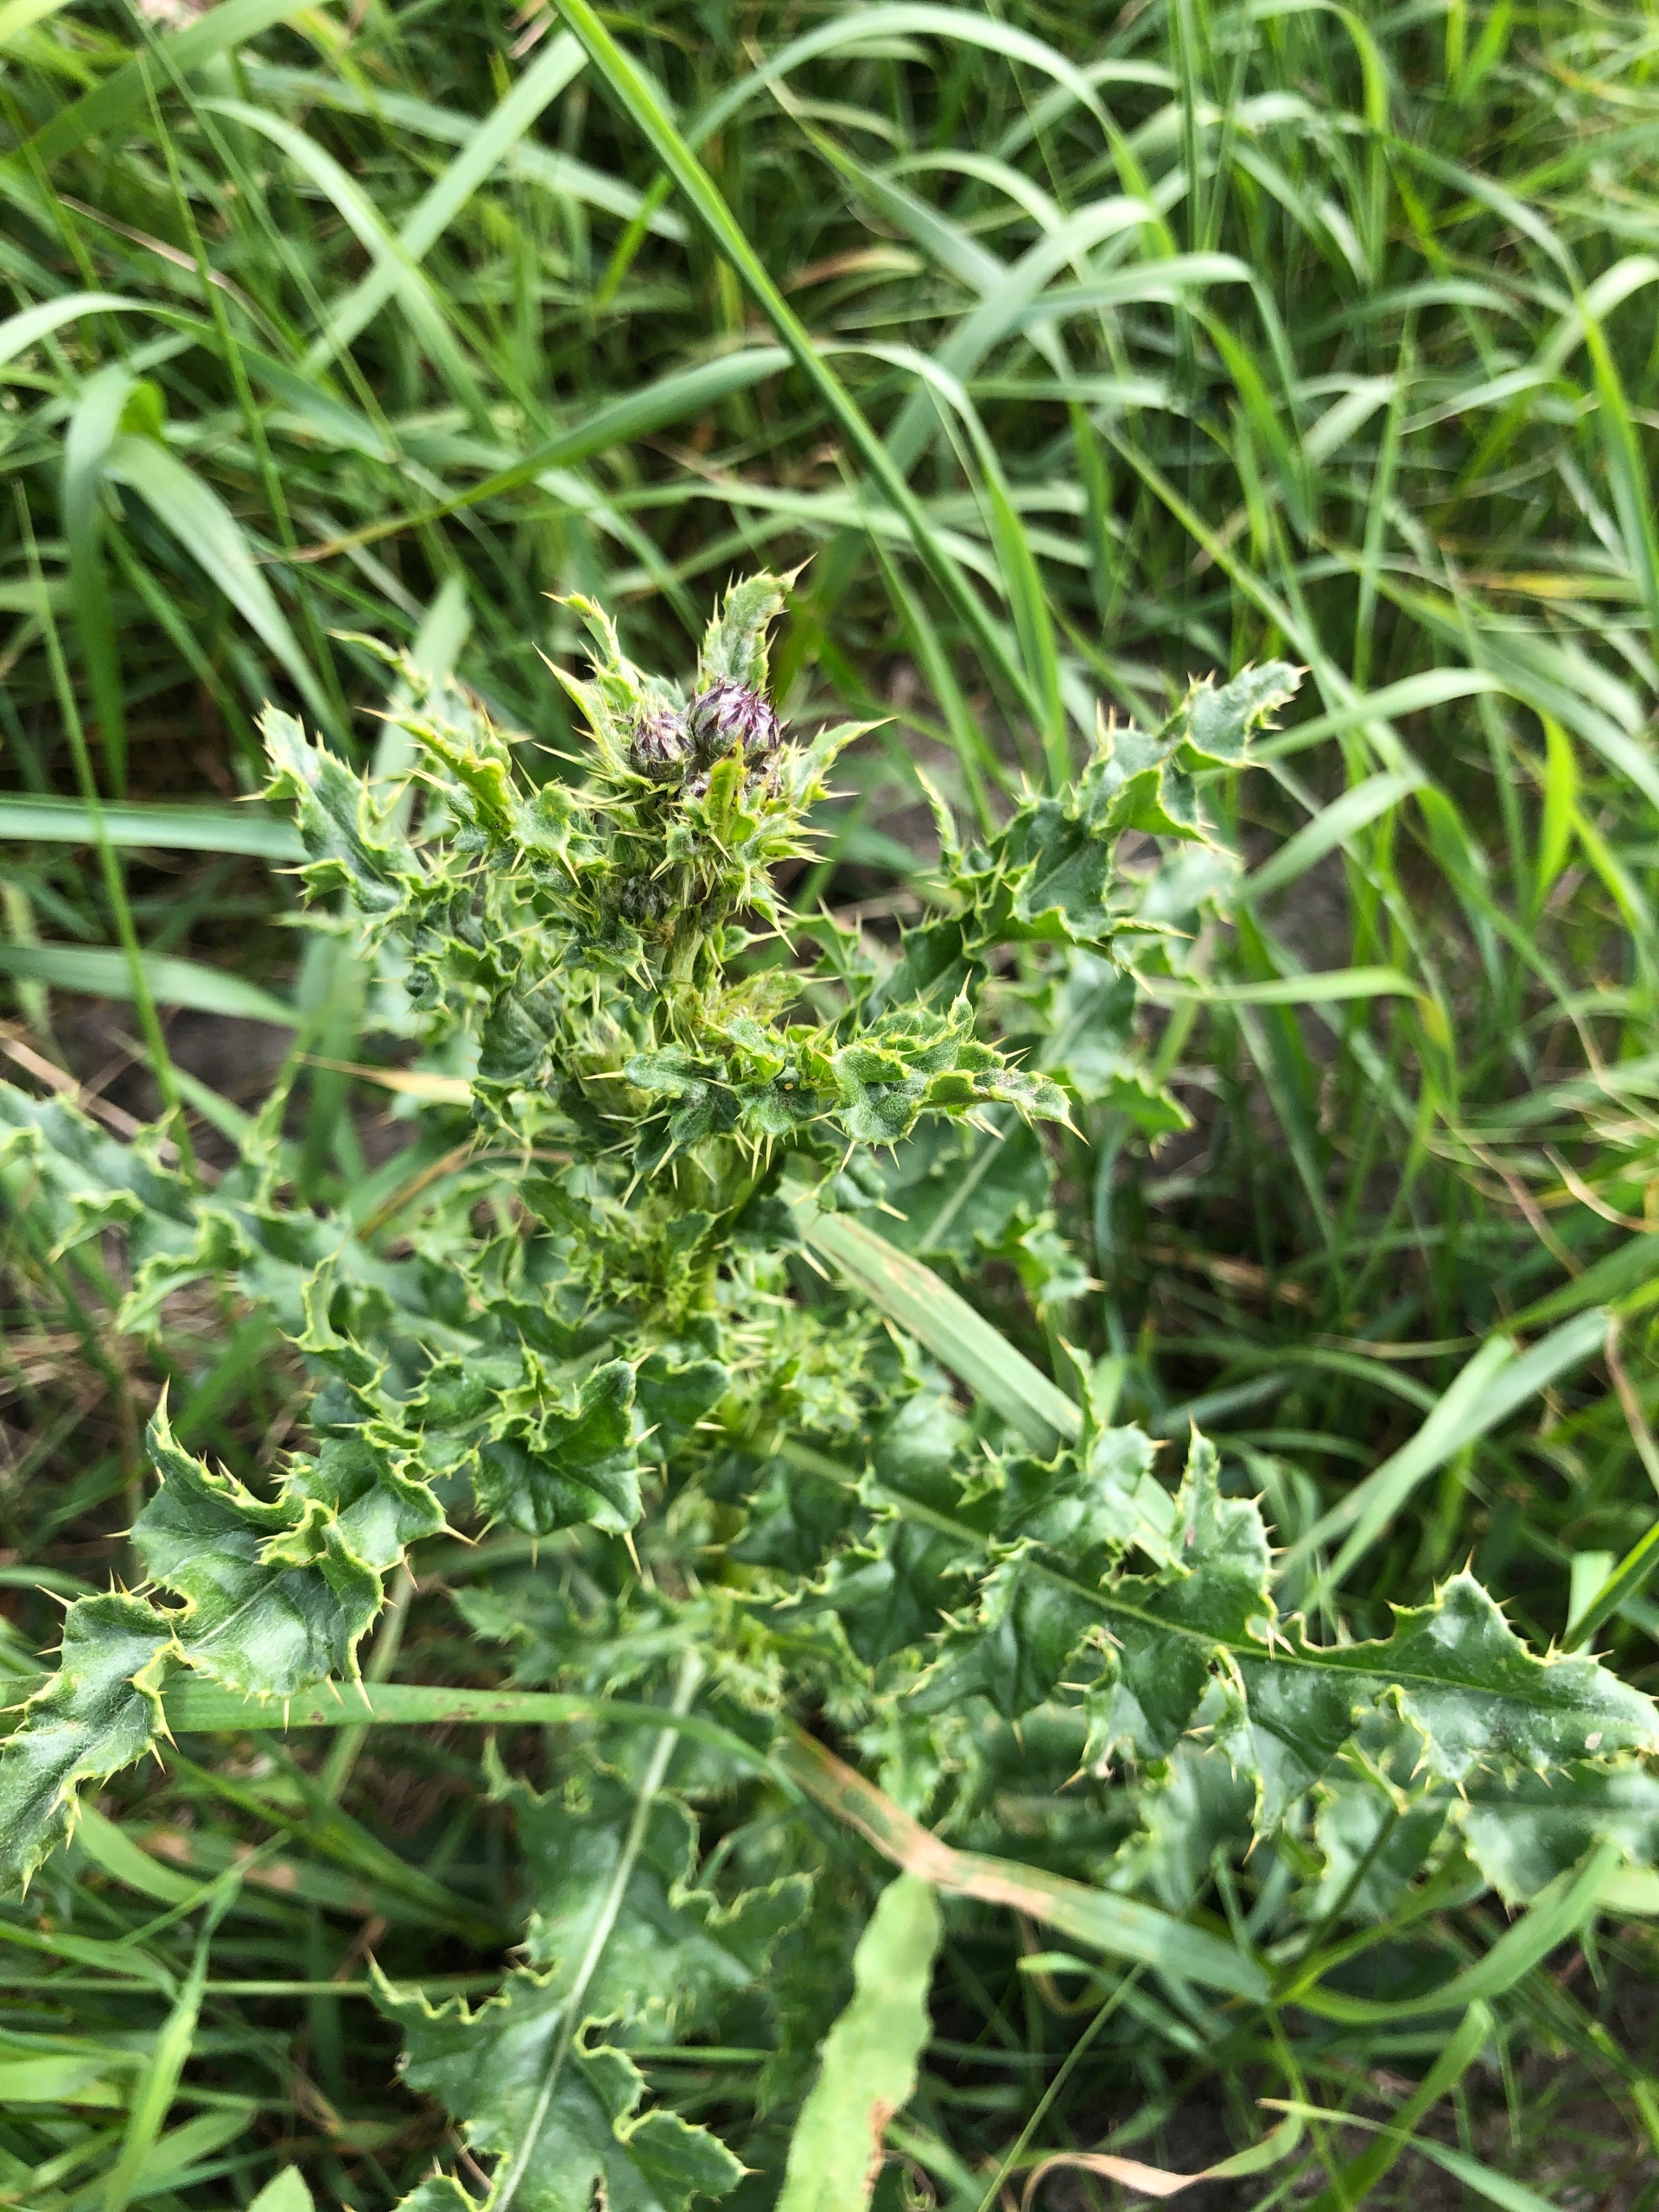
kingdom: Plantae
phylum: Tracheophyta
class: Magnoliopsida
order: Asterales
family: Asteraceae
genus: Cirsium
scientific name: Cirsium arvense
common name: Ager-tidsel
